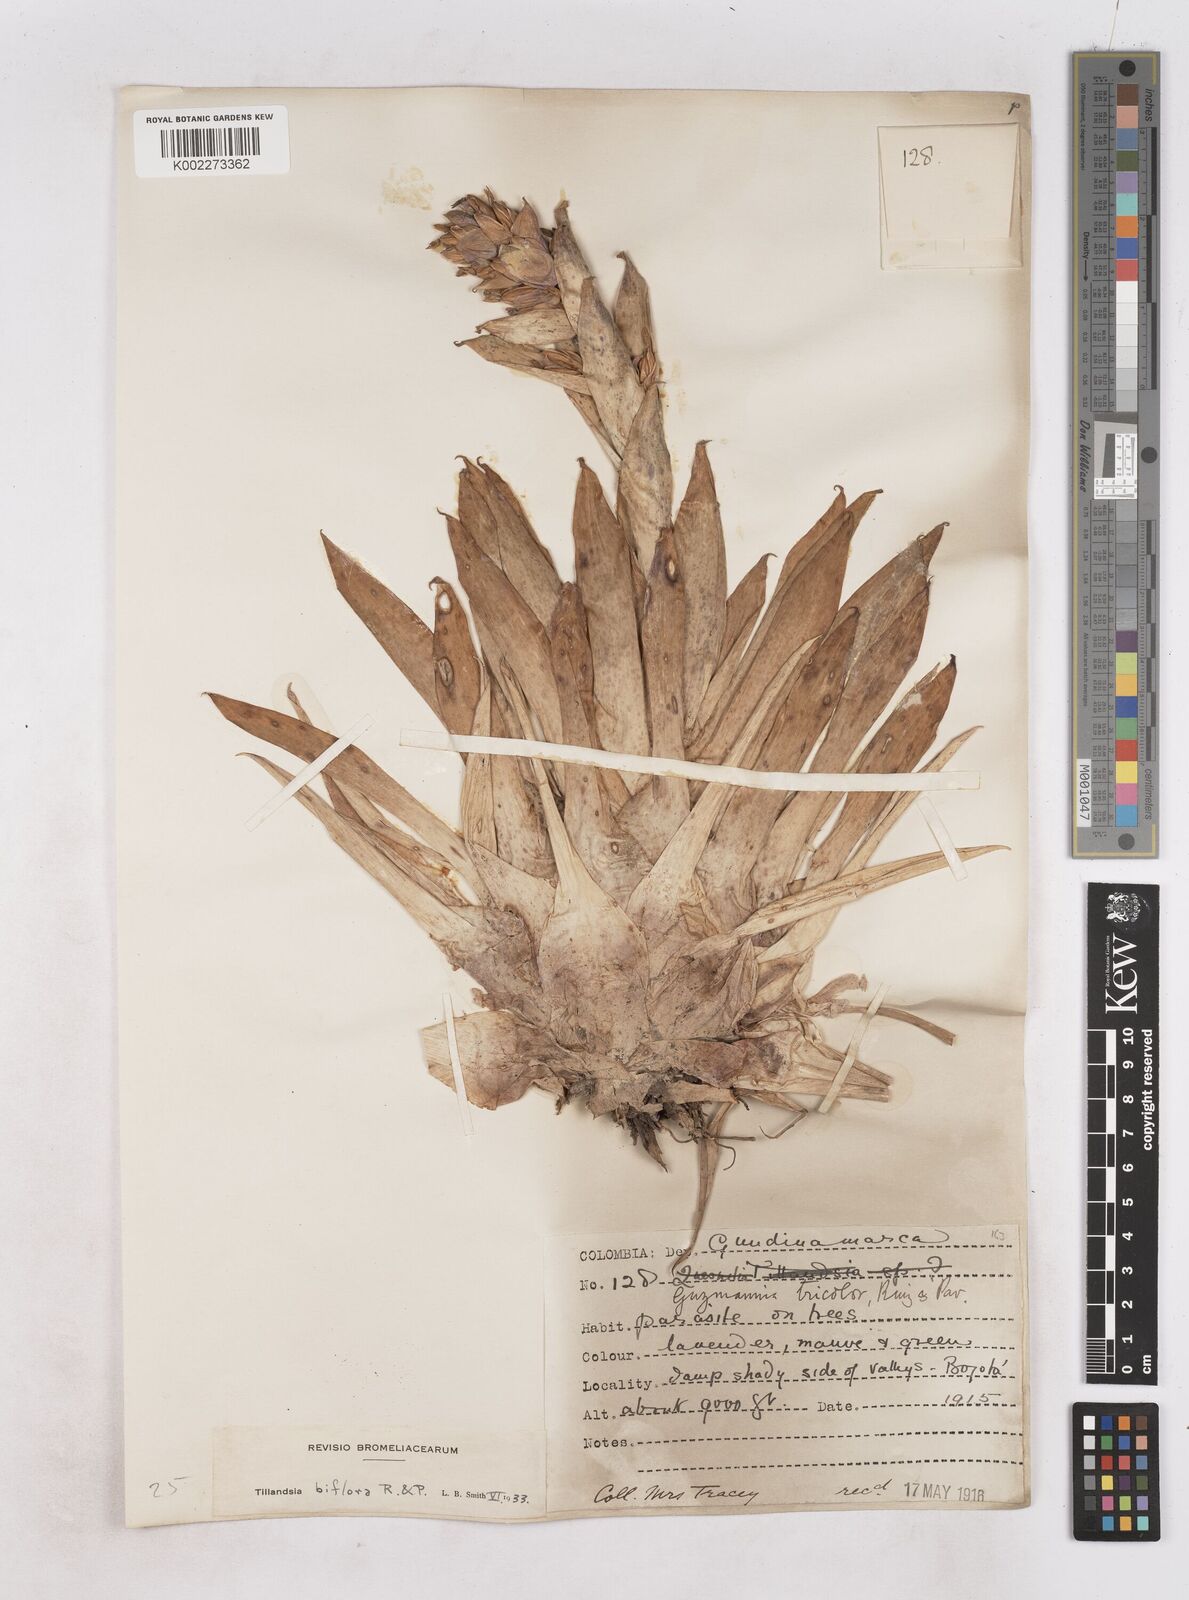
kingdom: Plantae
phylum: Tracheophyta
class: Liliopsida
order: Poales
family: Bromeliaceae
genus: Tillandsia
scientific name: Tillandsia biflora
